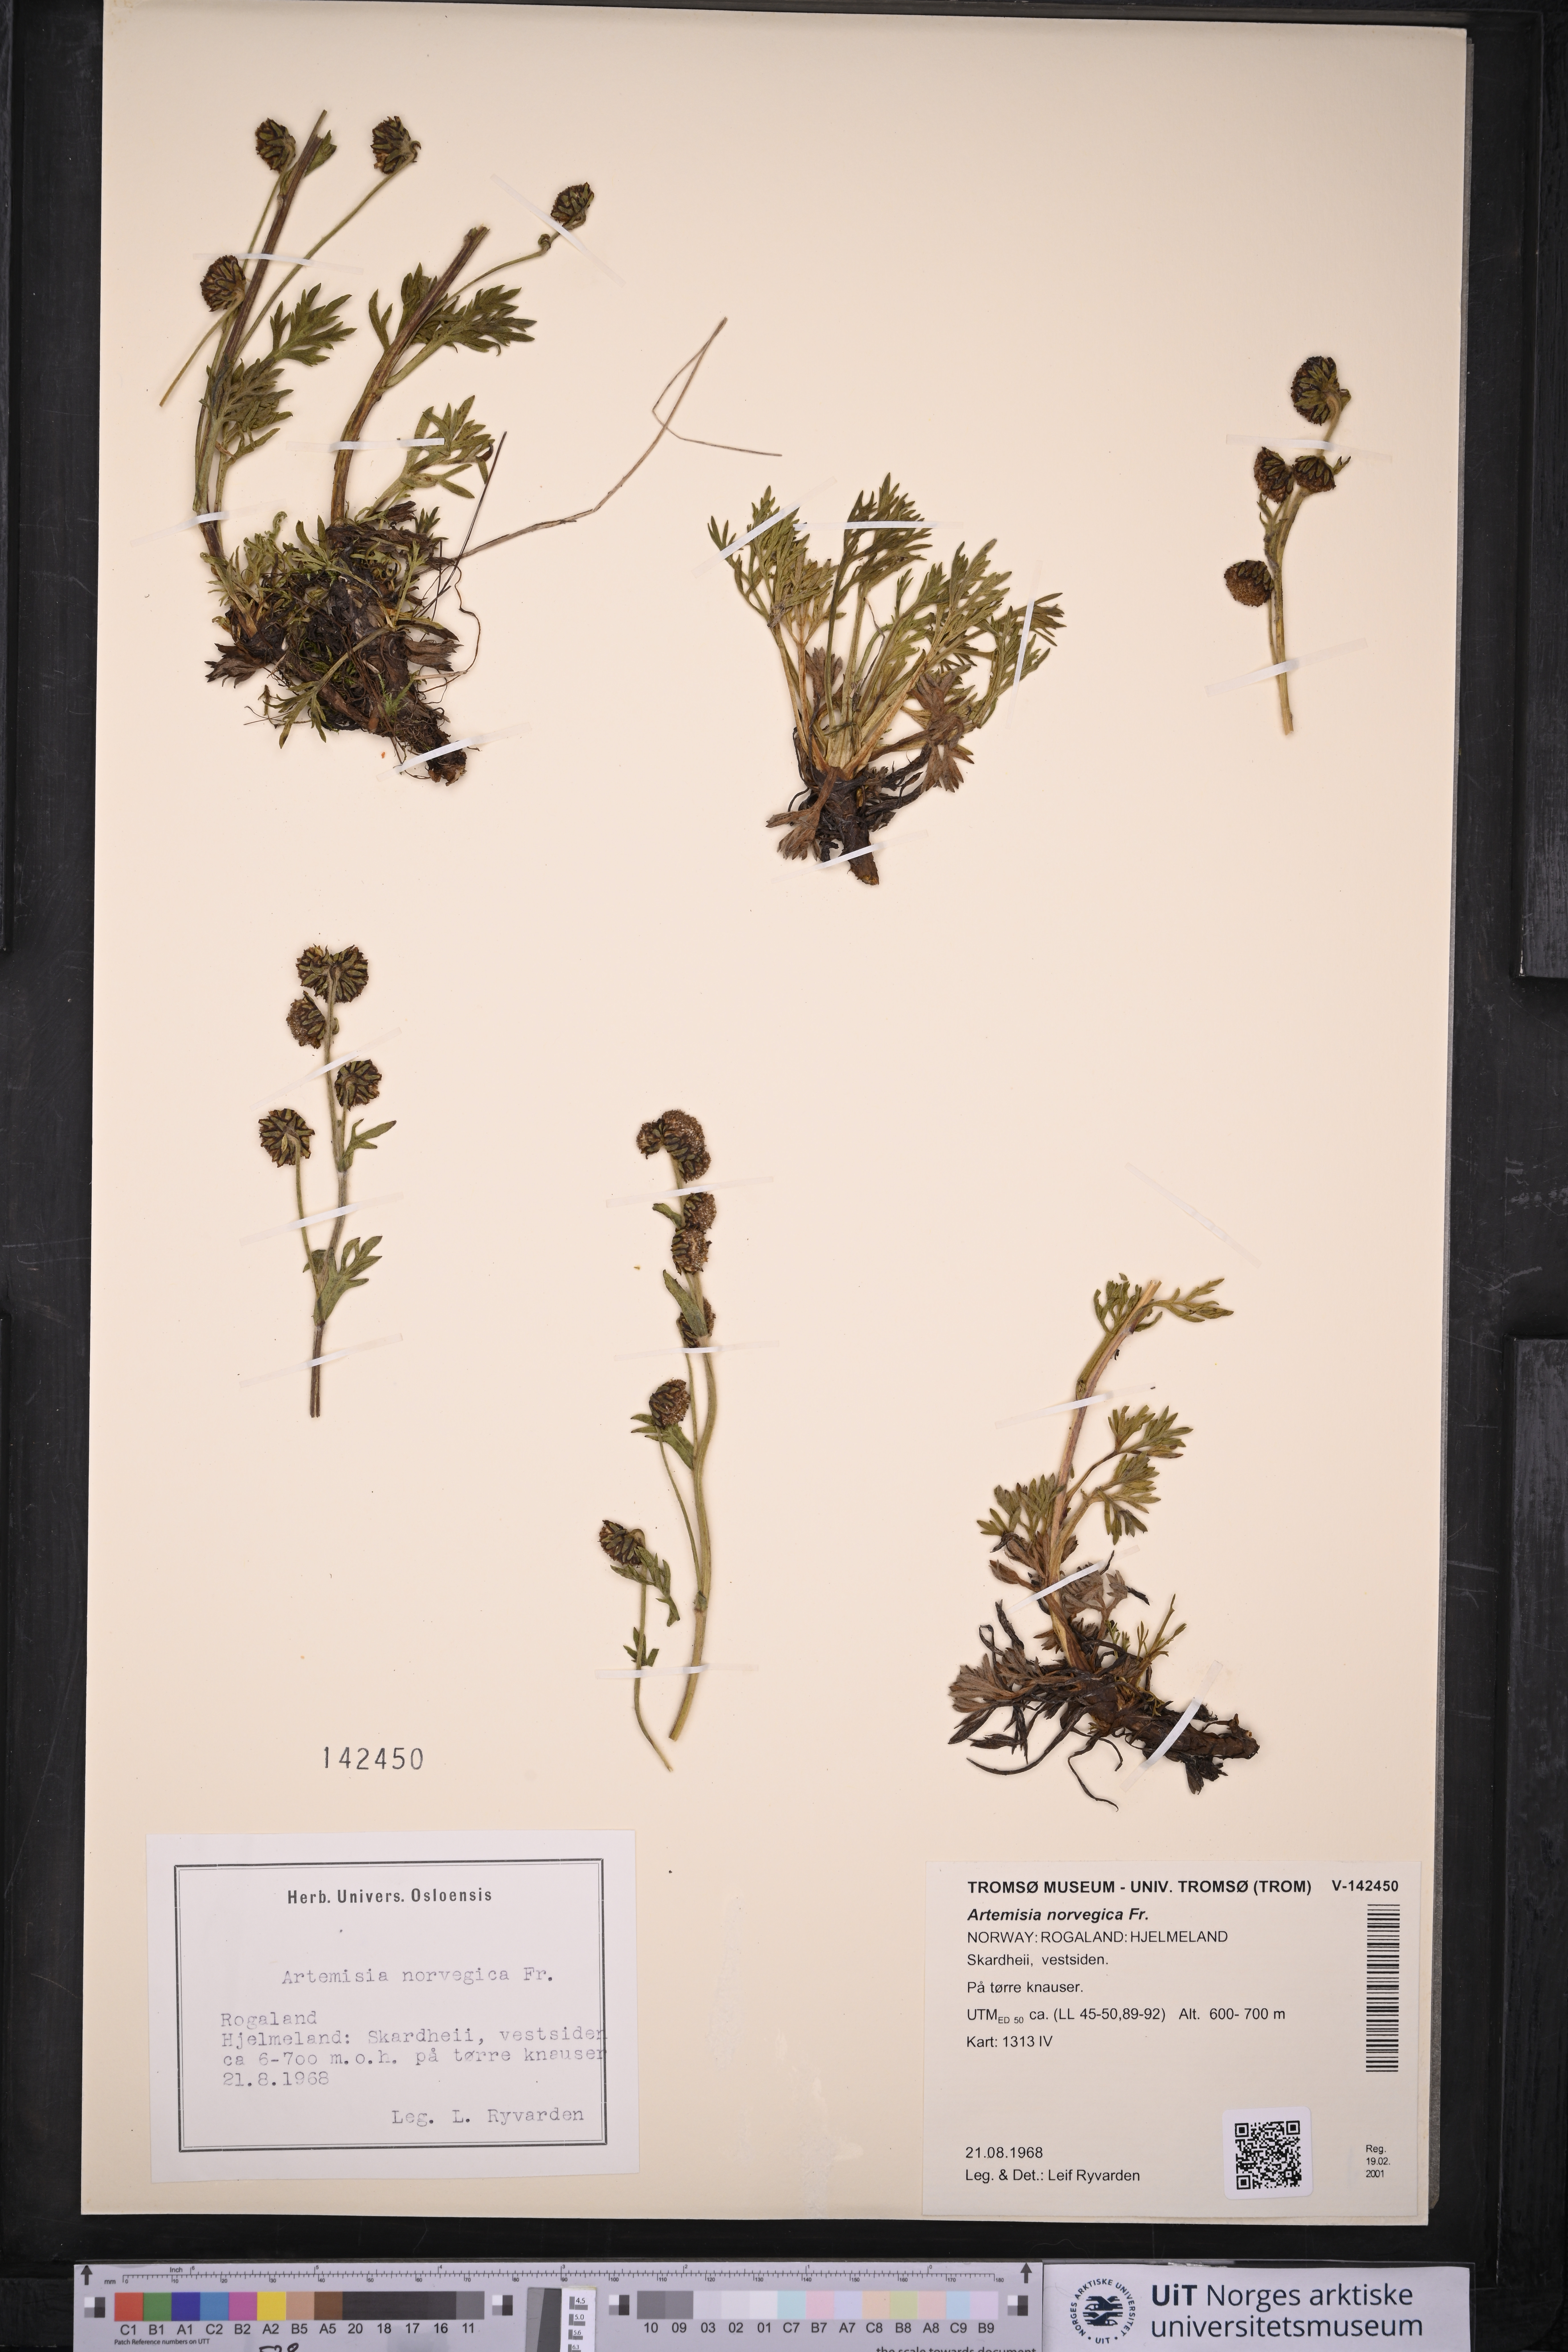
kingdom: Plantae
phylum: Tracheophyta
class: Magnoliopsida
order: Asterales
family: Asteraceae
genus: Artemisia
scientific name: Artemisia norvegica
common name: Norwegian mugwort
